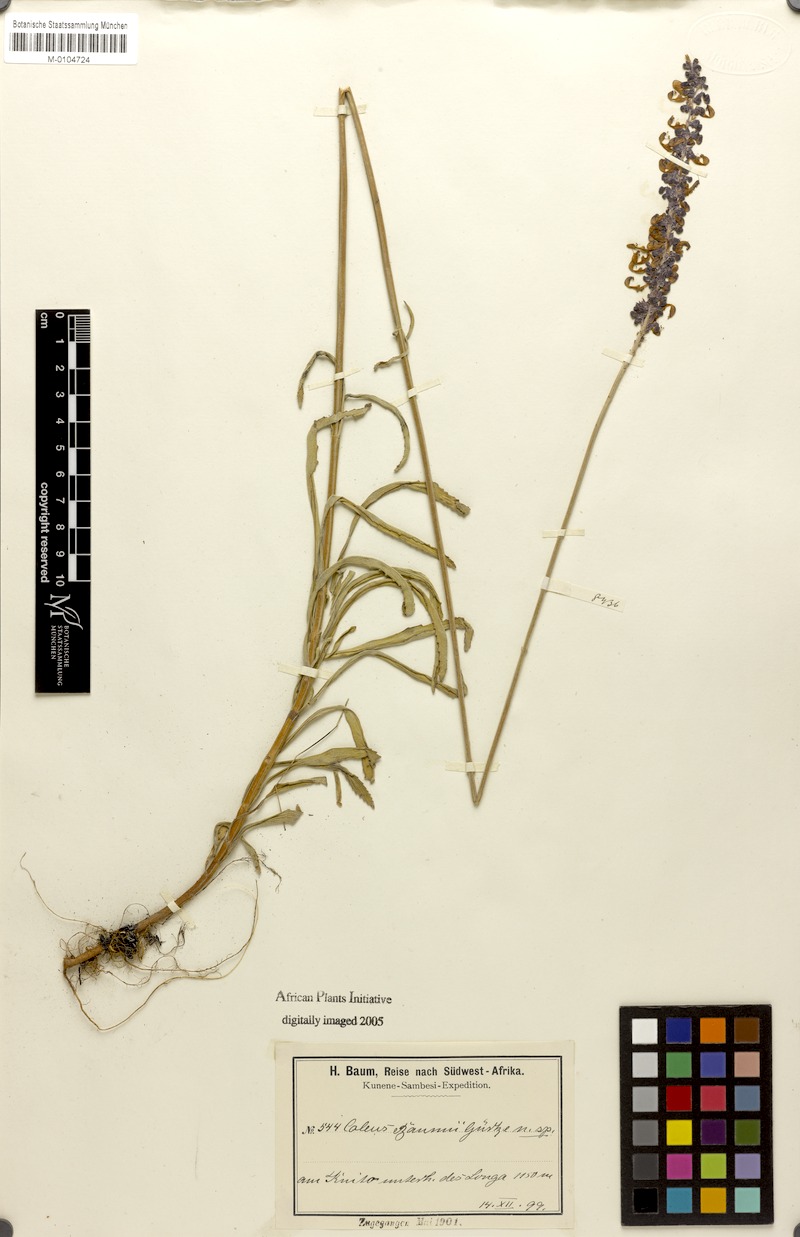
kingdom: Plantae
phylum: Tracheophyta
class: Magnoliopsida
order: Lamiales
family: Lamiaceae
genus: Coleus
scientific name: Coleus betonicifolius
